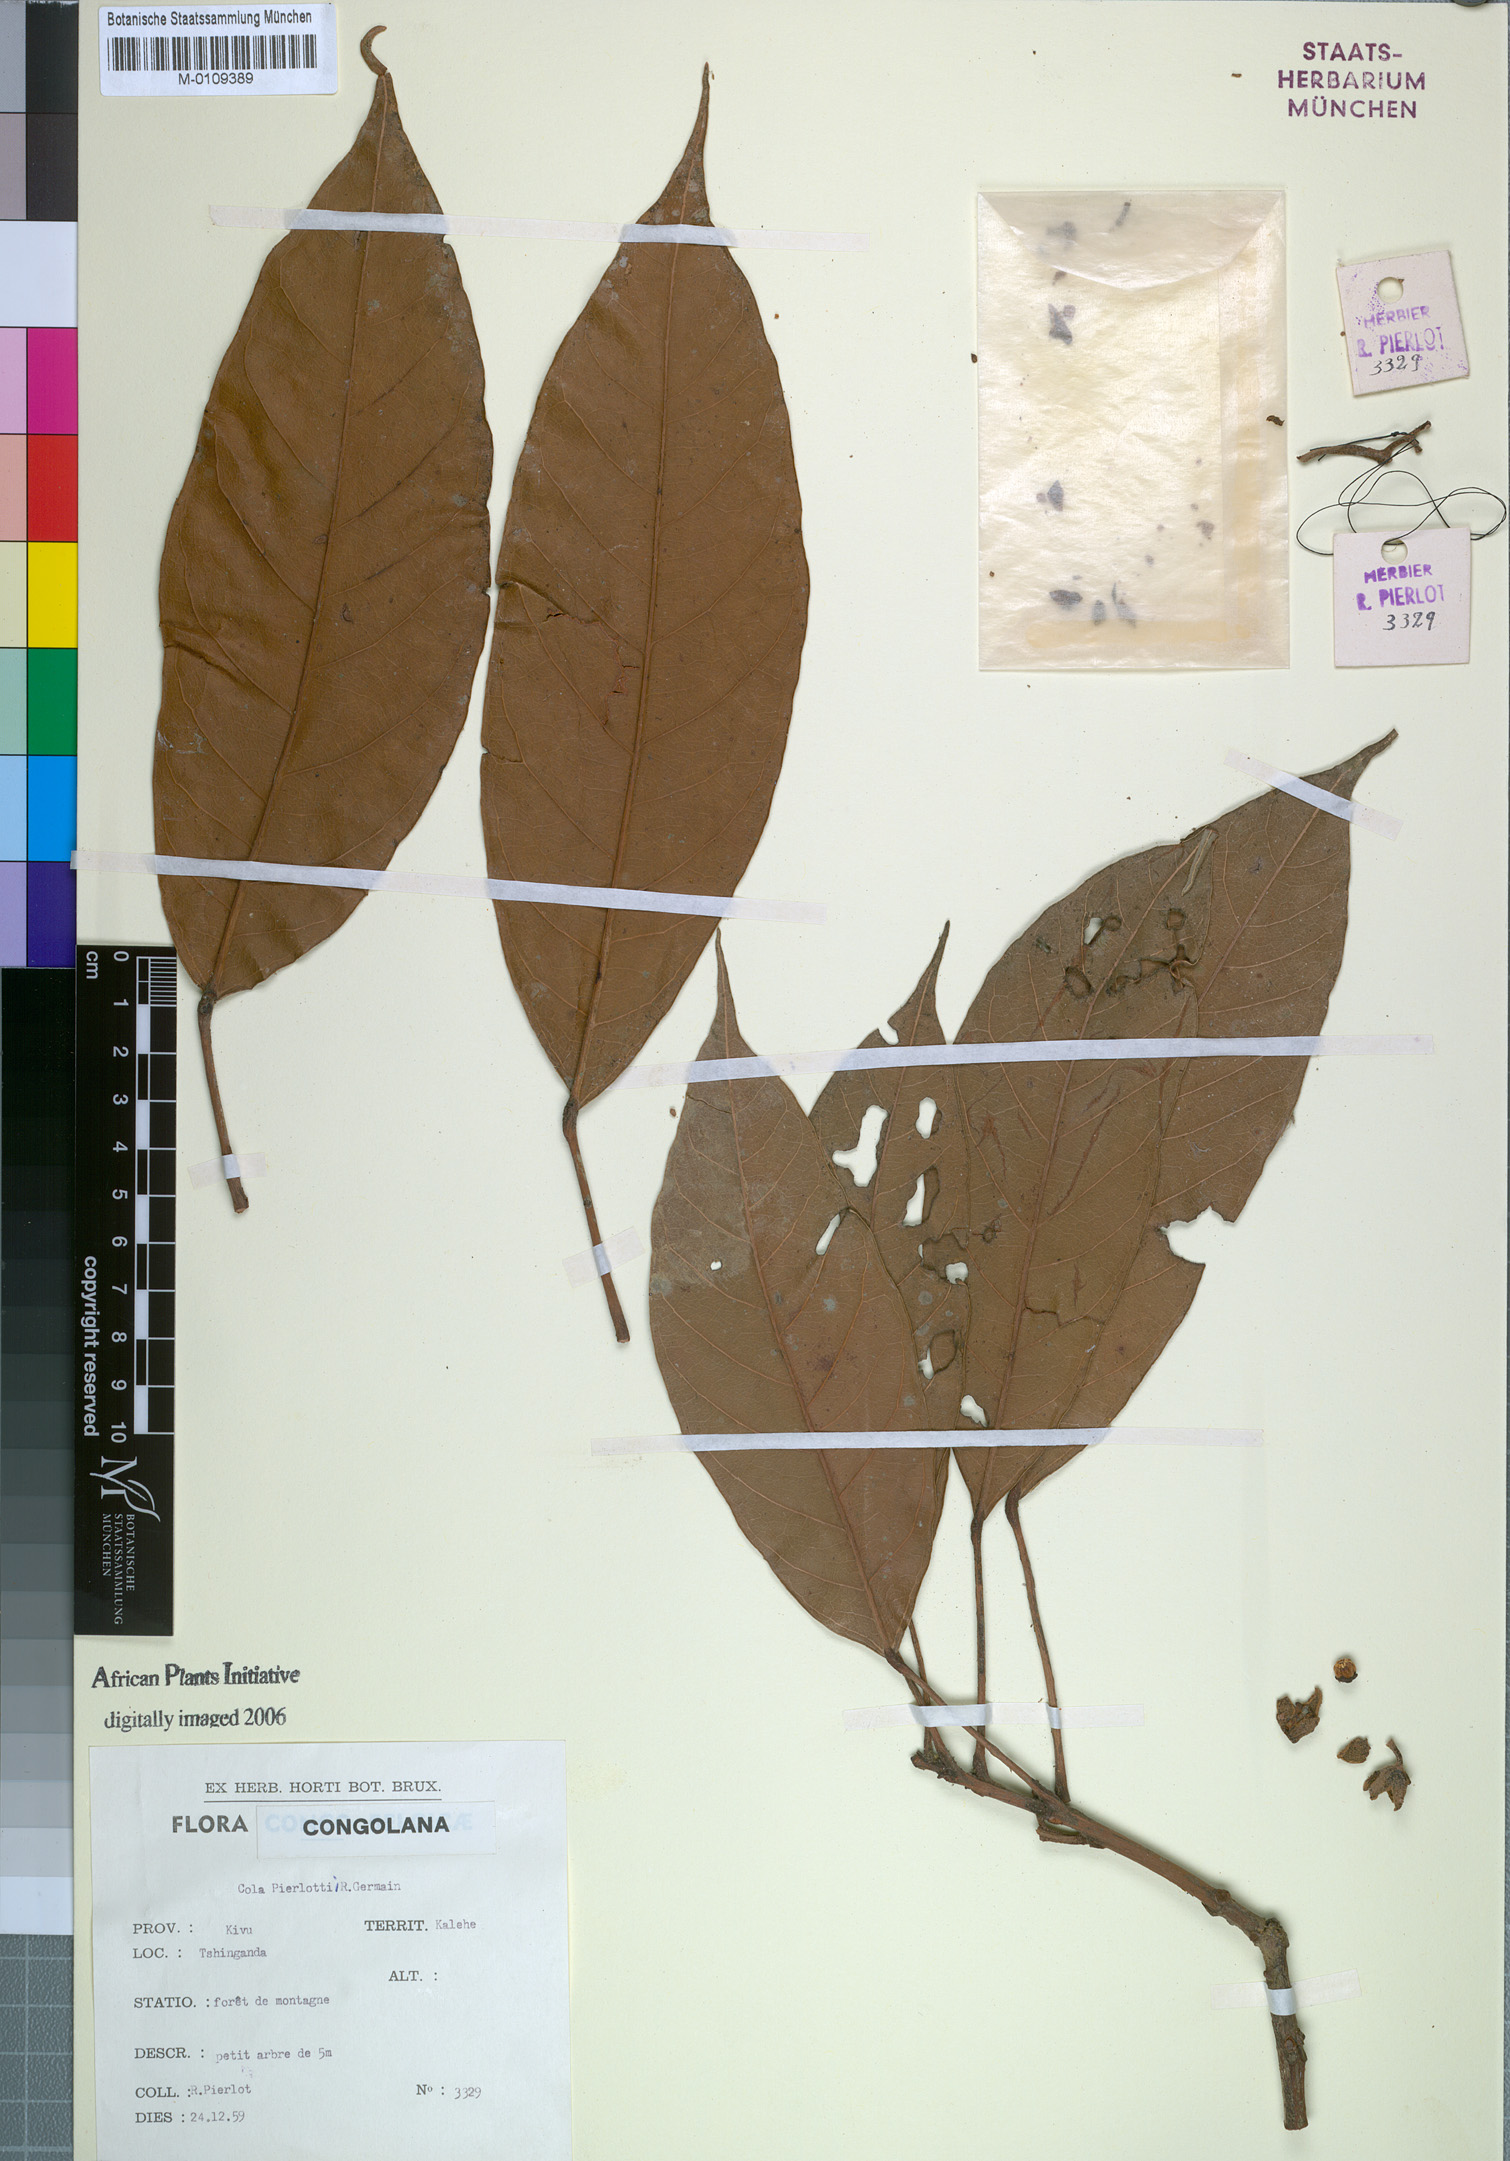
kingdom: Plantae
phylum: Tracheophyta
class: Magnoliopsida
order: Malvales
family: Malvaceae
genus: Cola
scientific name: Cola pierlotii
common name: Pierlot's cola
